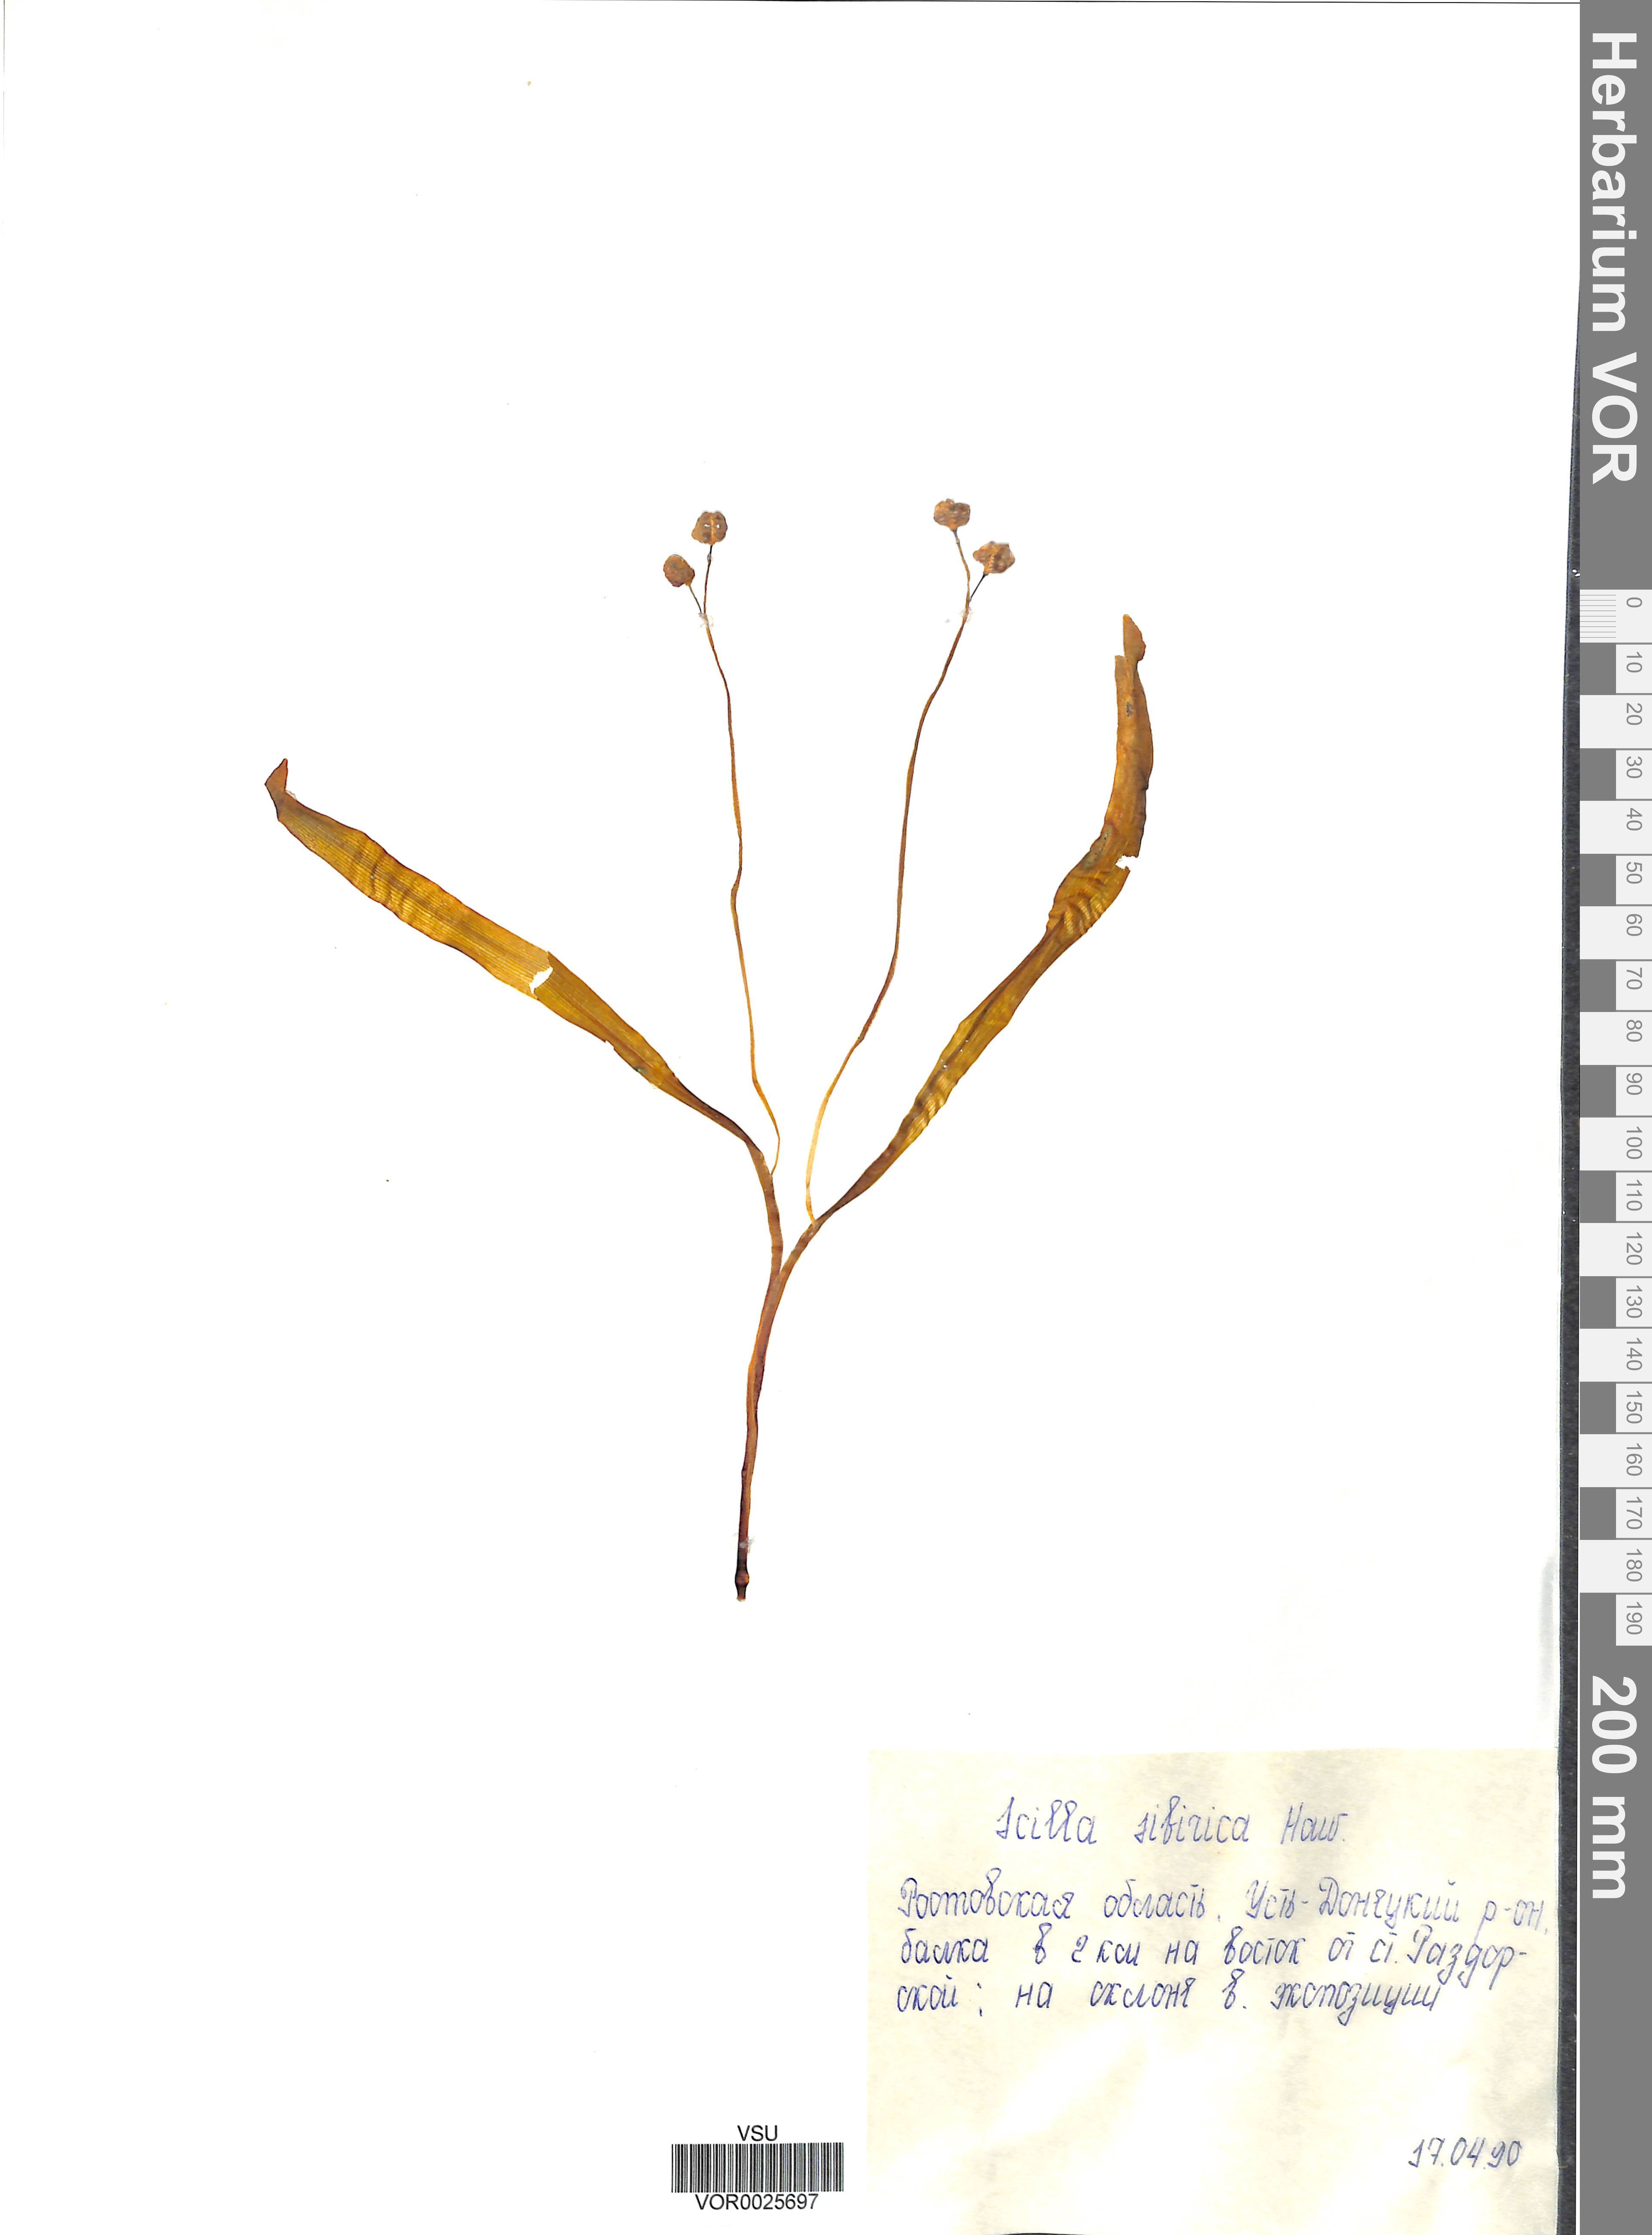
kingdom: Plantae
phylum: Tracheophyta
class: Liliopsida
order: Asparagales
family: Asparagaceae
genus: Scilla
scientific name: Scilla siberica
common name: Siberian squill
